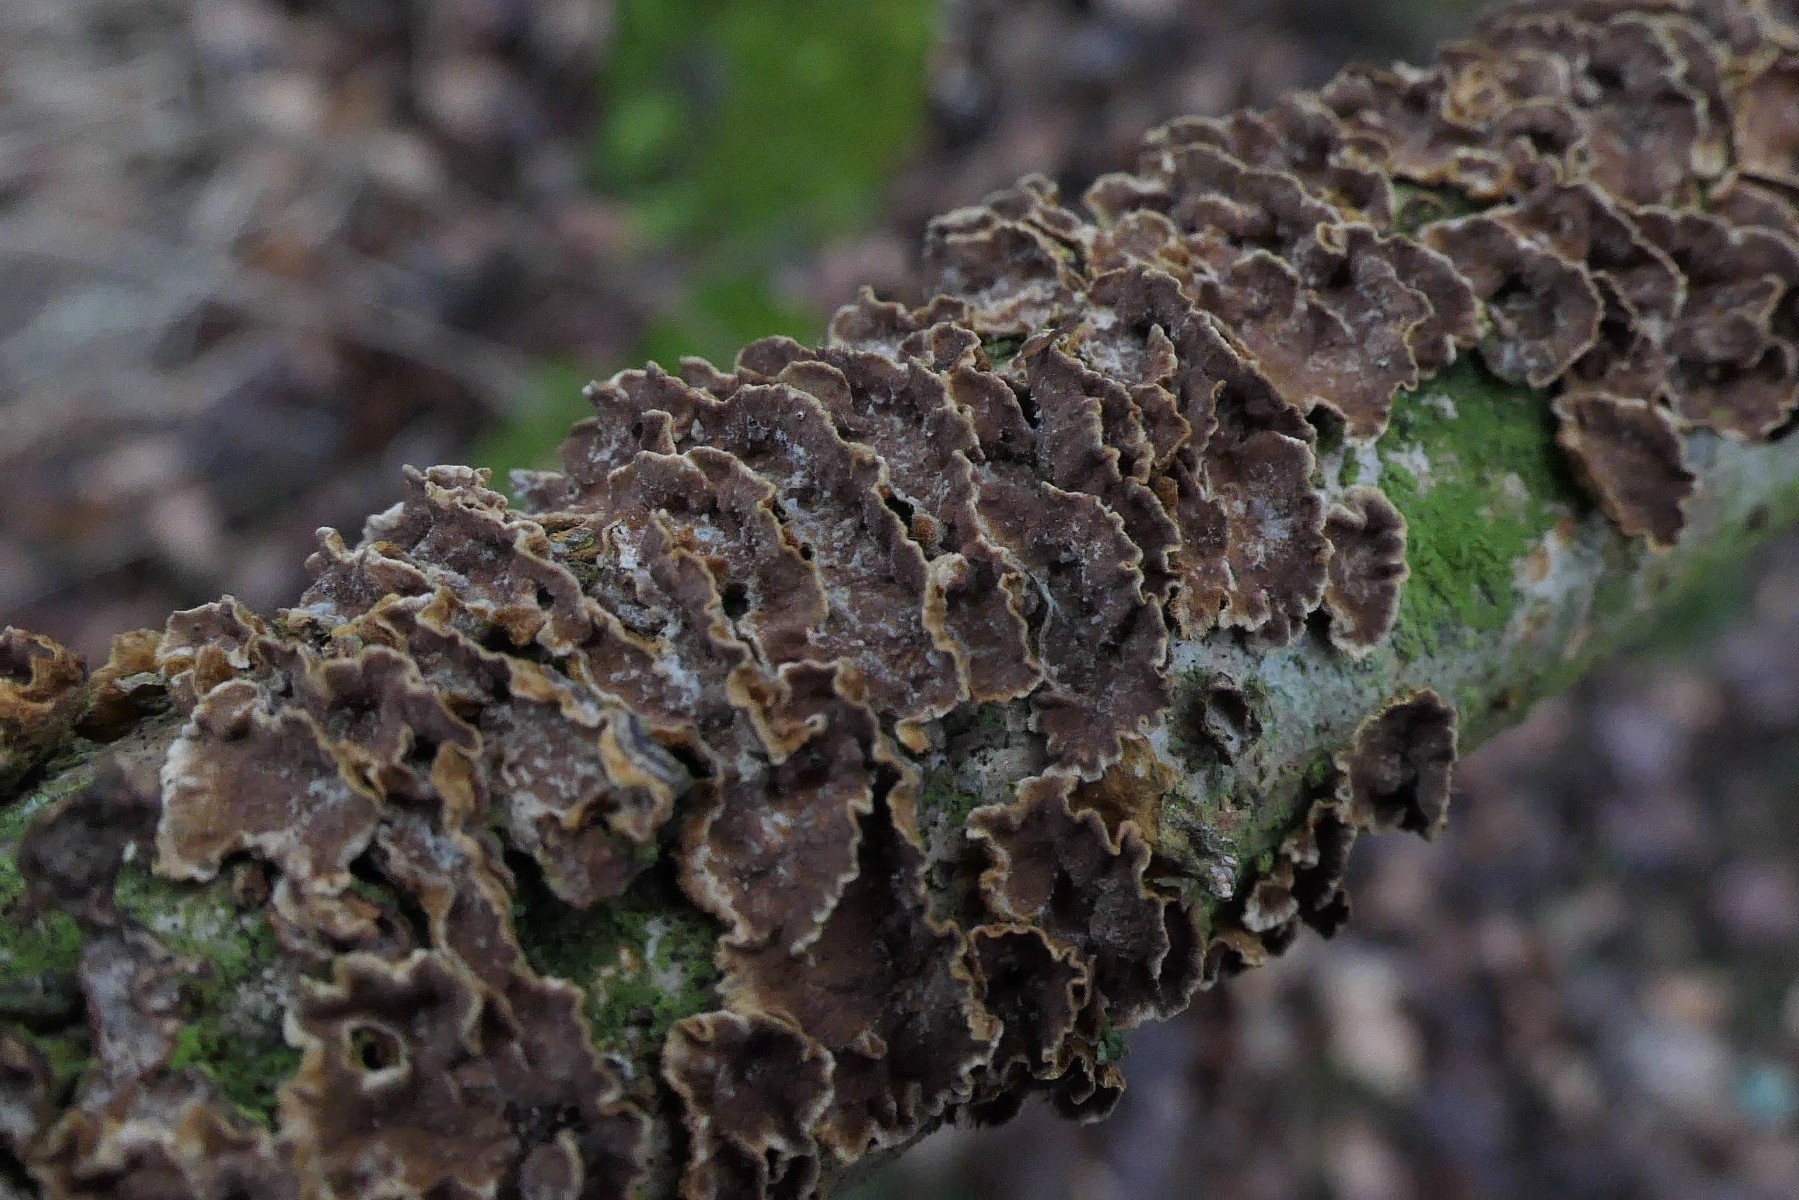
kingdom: Fungi
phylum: Basidiomycota
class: Agaricomycetes
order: Hymenochaetales
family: Hymenochaetaceae
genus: Hydnoporia
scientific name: Hydnoporia tabacina
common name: tobaksbrun ruslædersvamp
